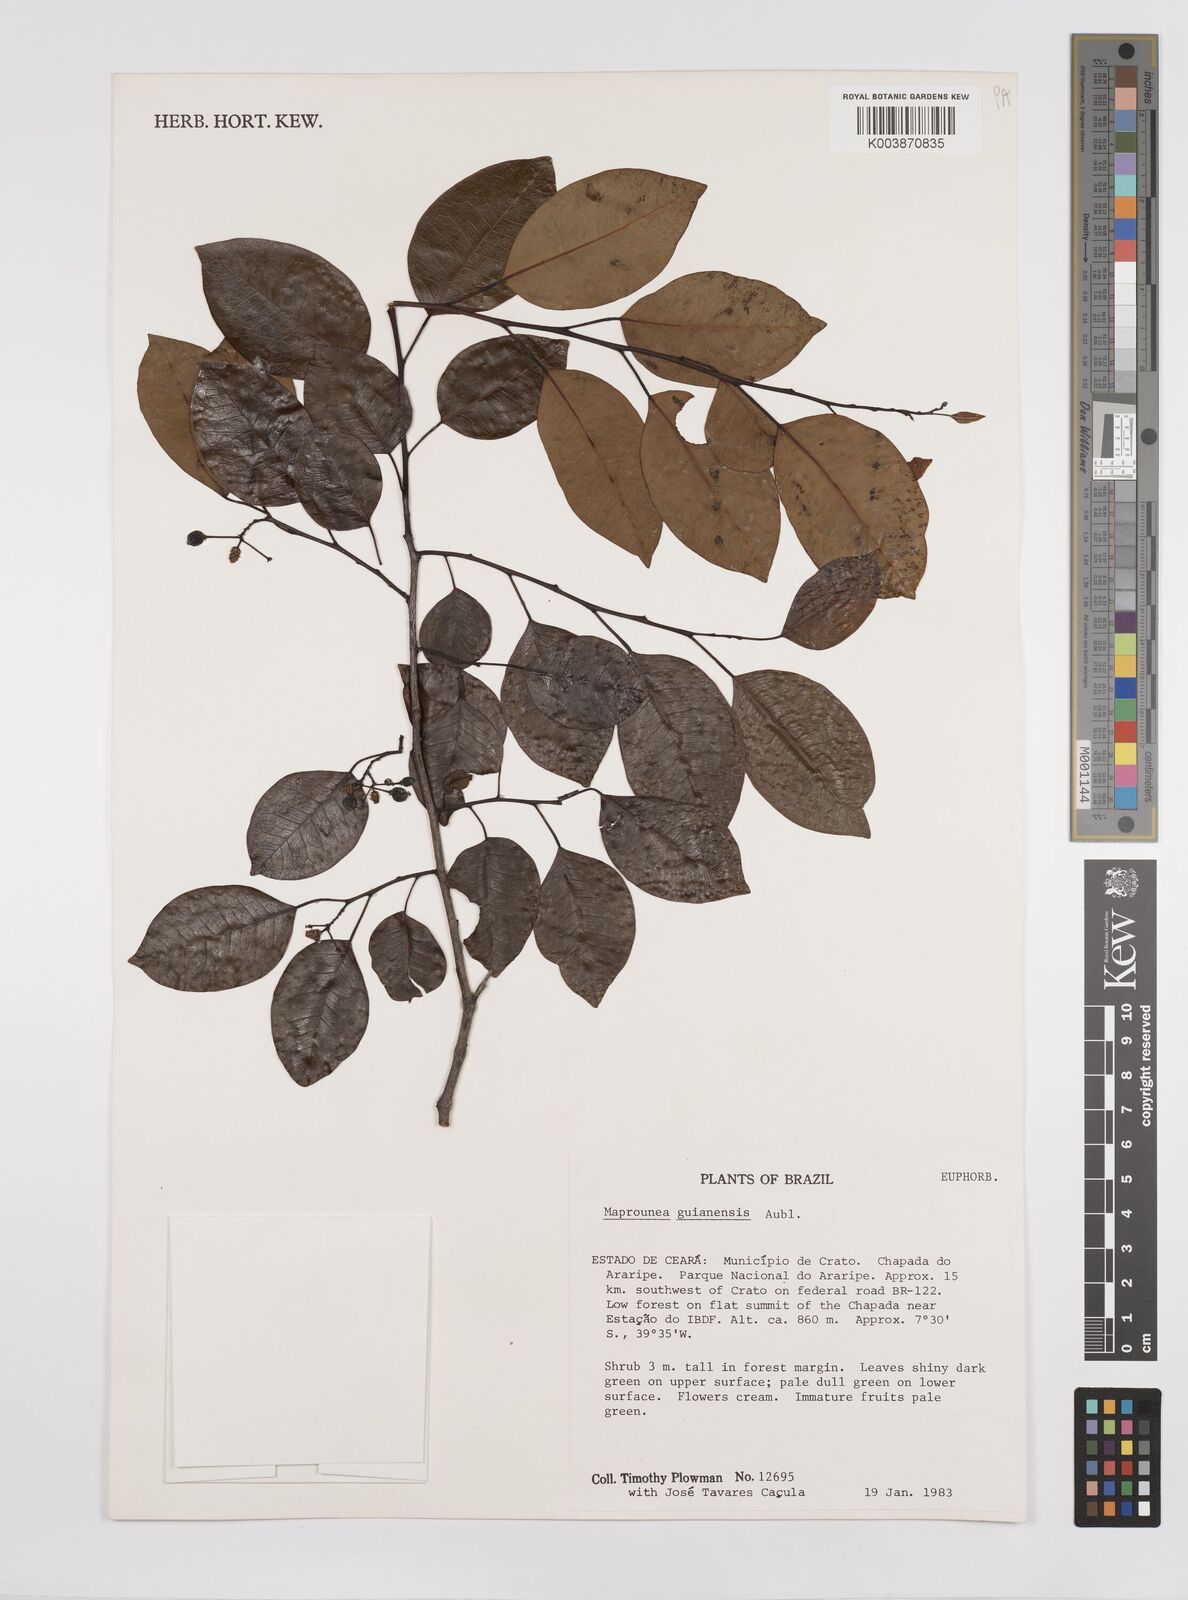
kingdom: Plantae
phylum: Tracheophyta
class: Magnoliopsida
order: Malpighiales
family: Euphorbiaceae
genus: Maprounea
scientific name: Maprounea guianensis
